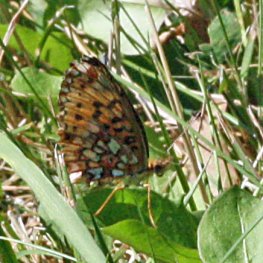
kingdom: Animalia
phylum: Arthropoda
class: Insecta
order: Lepidoptera
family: Nymphalidae
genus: Boloria
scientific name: Boloria selene
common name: Silver-bordered Fritillary
